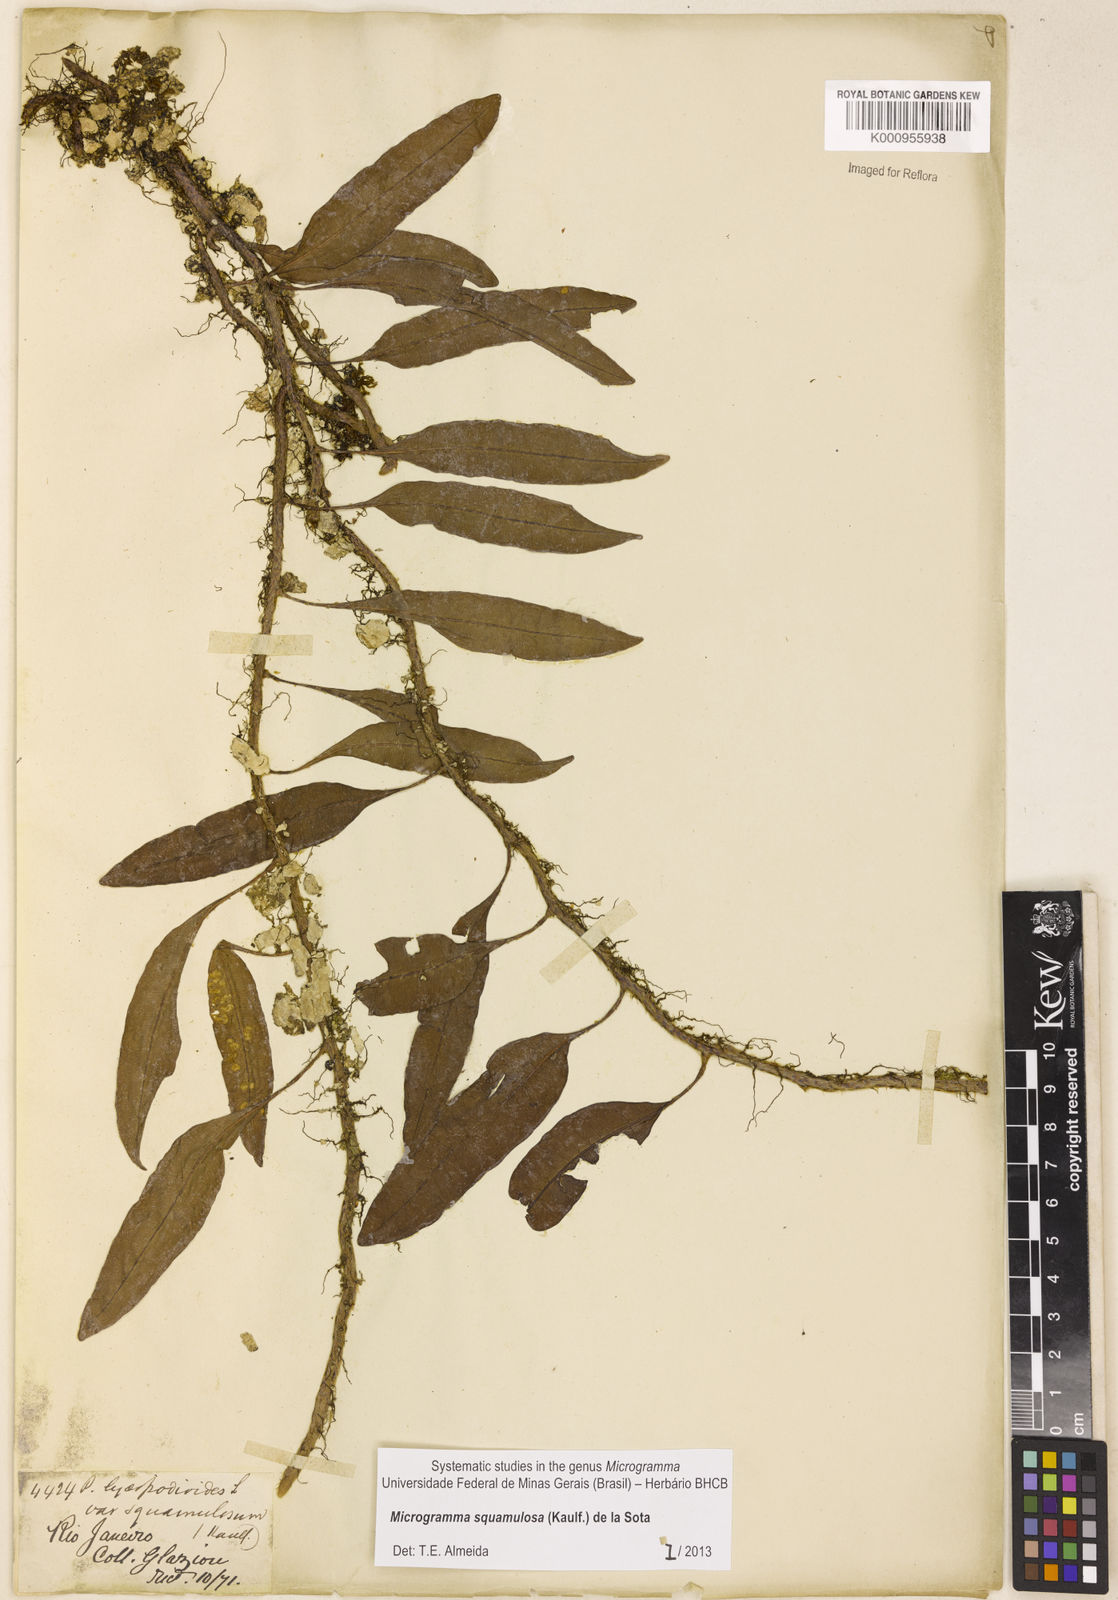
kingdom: Plantae
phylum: Tracheophyta
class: Polypodiopsida
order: Polypodiales
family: Polypodiaceae
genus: Microgramma
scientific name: Microgramma squamulosa
